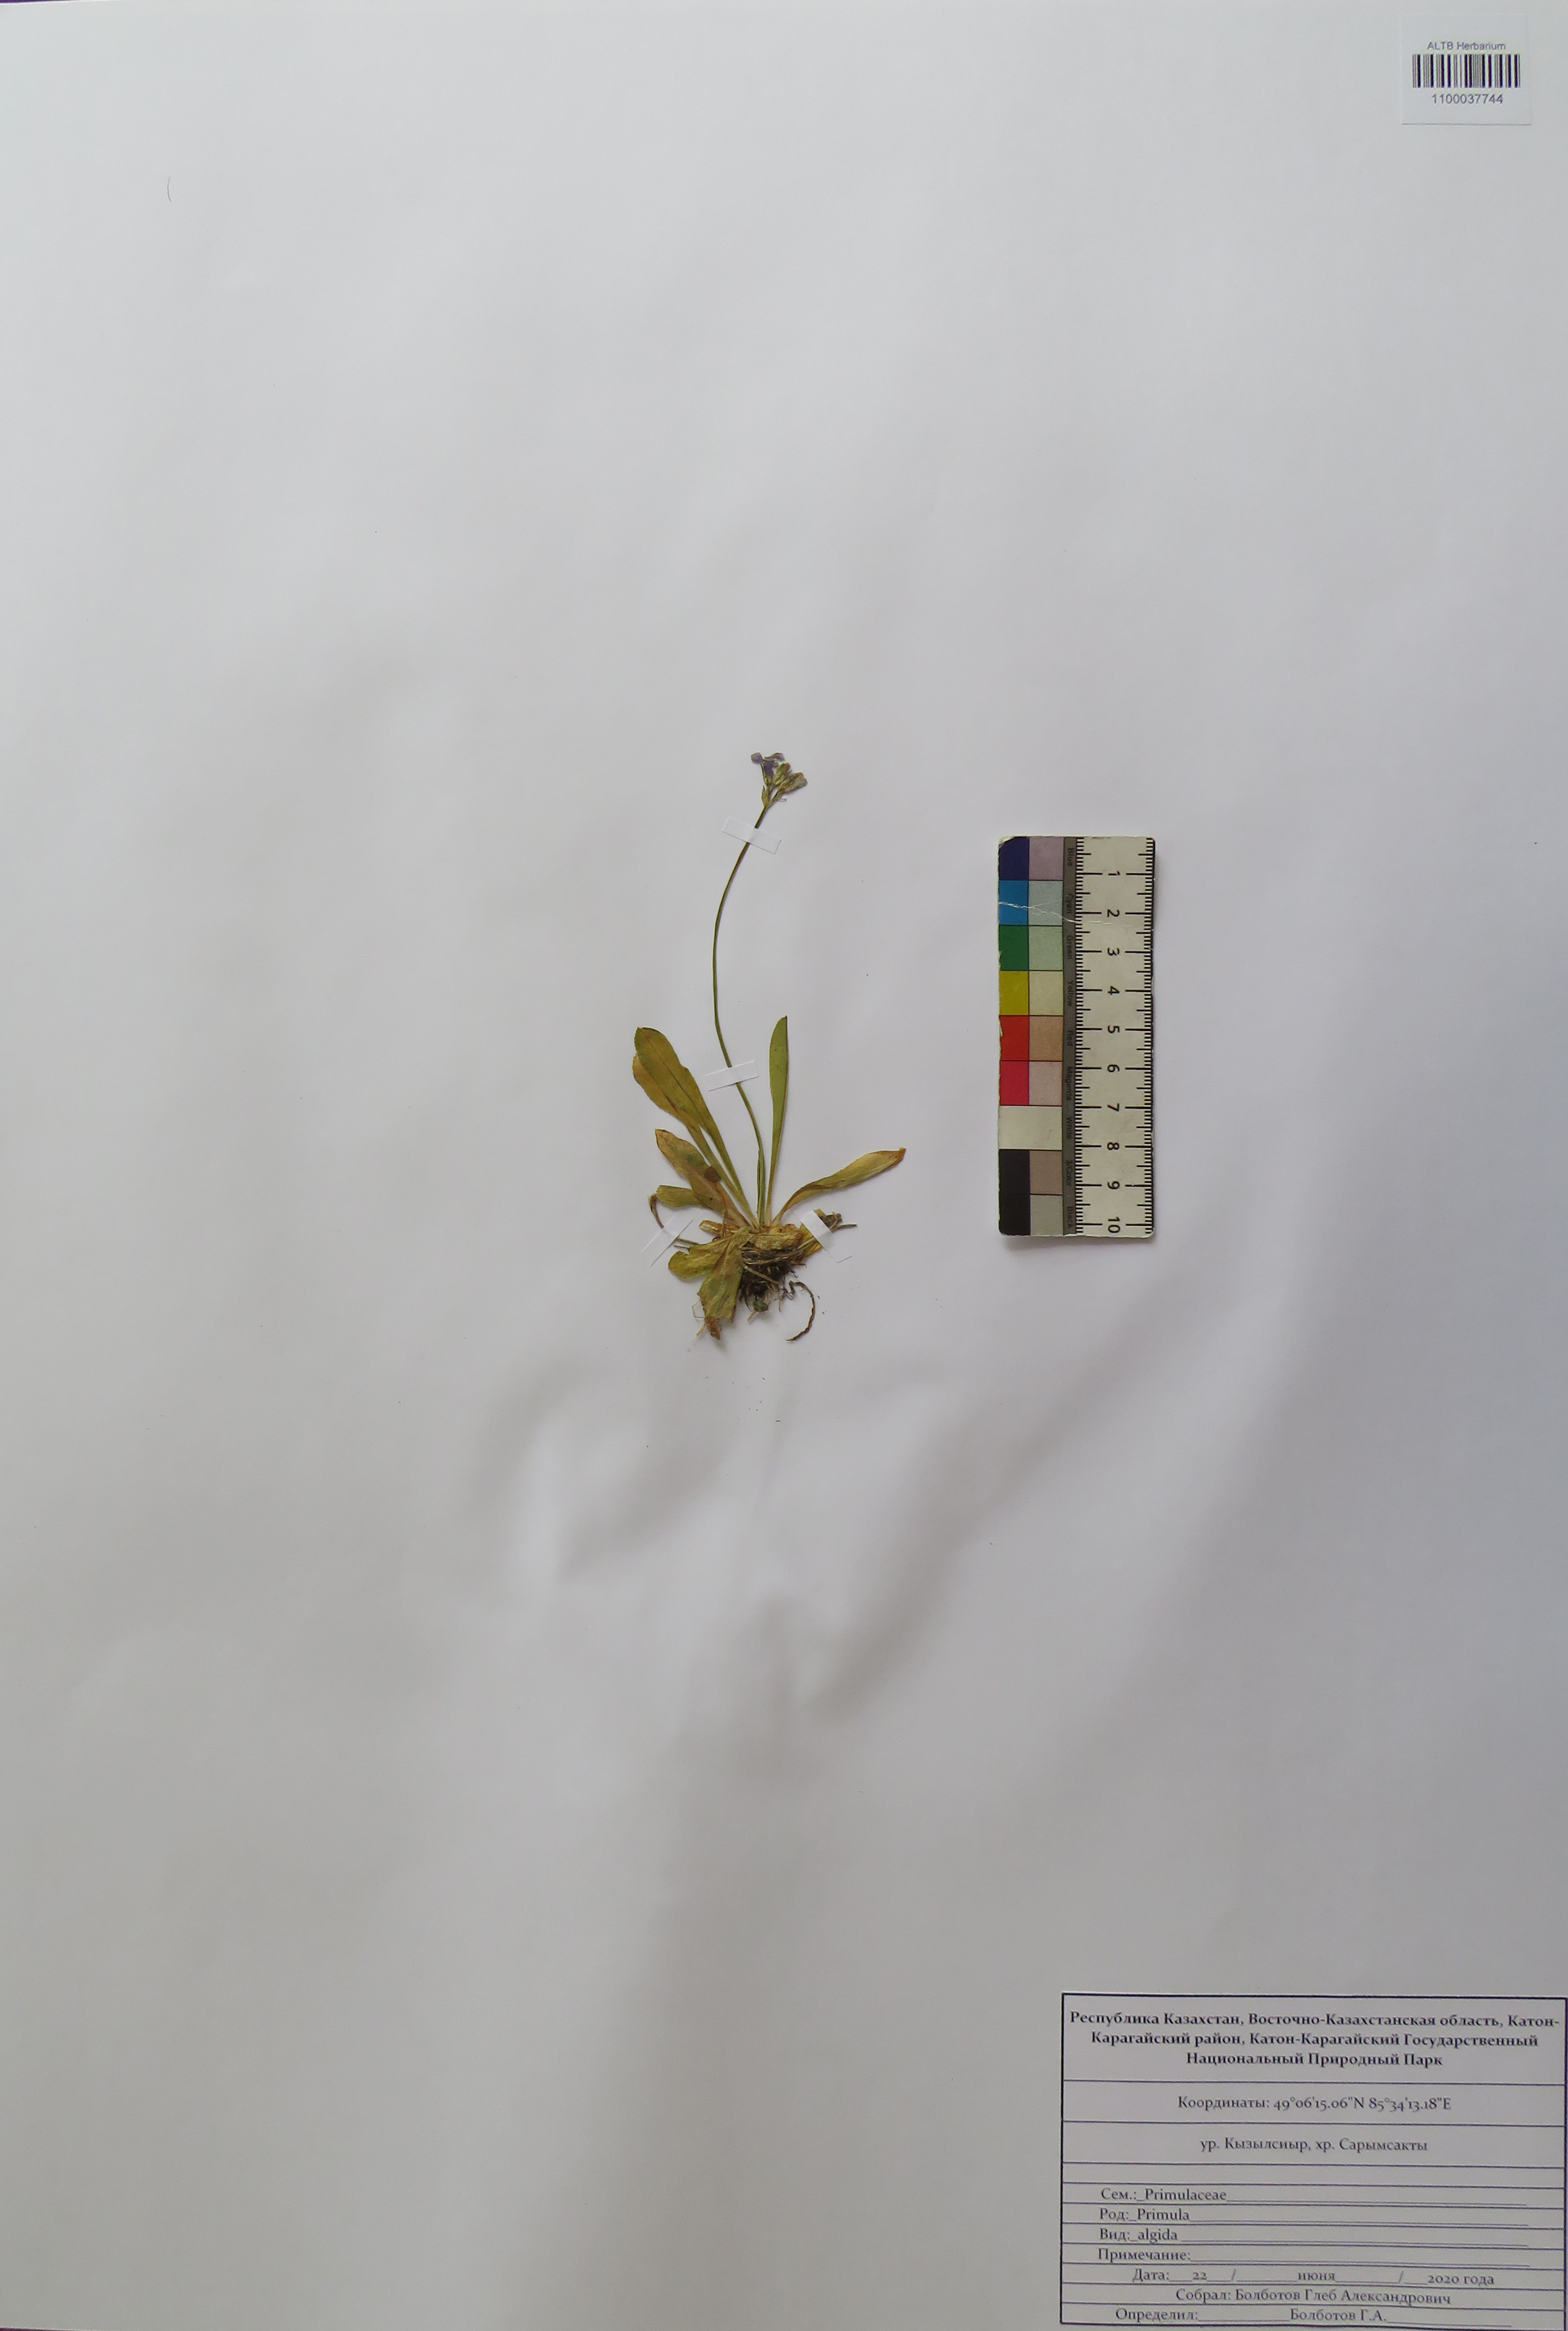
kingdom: Plantae
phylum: Tracheophyta
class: Magnoliopsida
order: Ericales
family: Primulaceae
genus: Primula
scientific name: Primula algida
